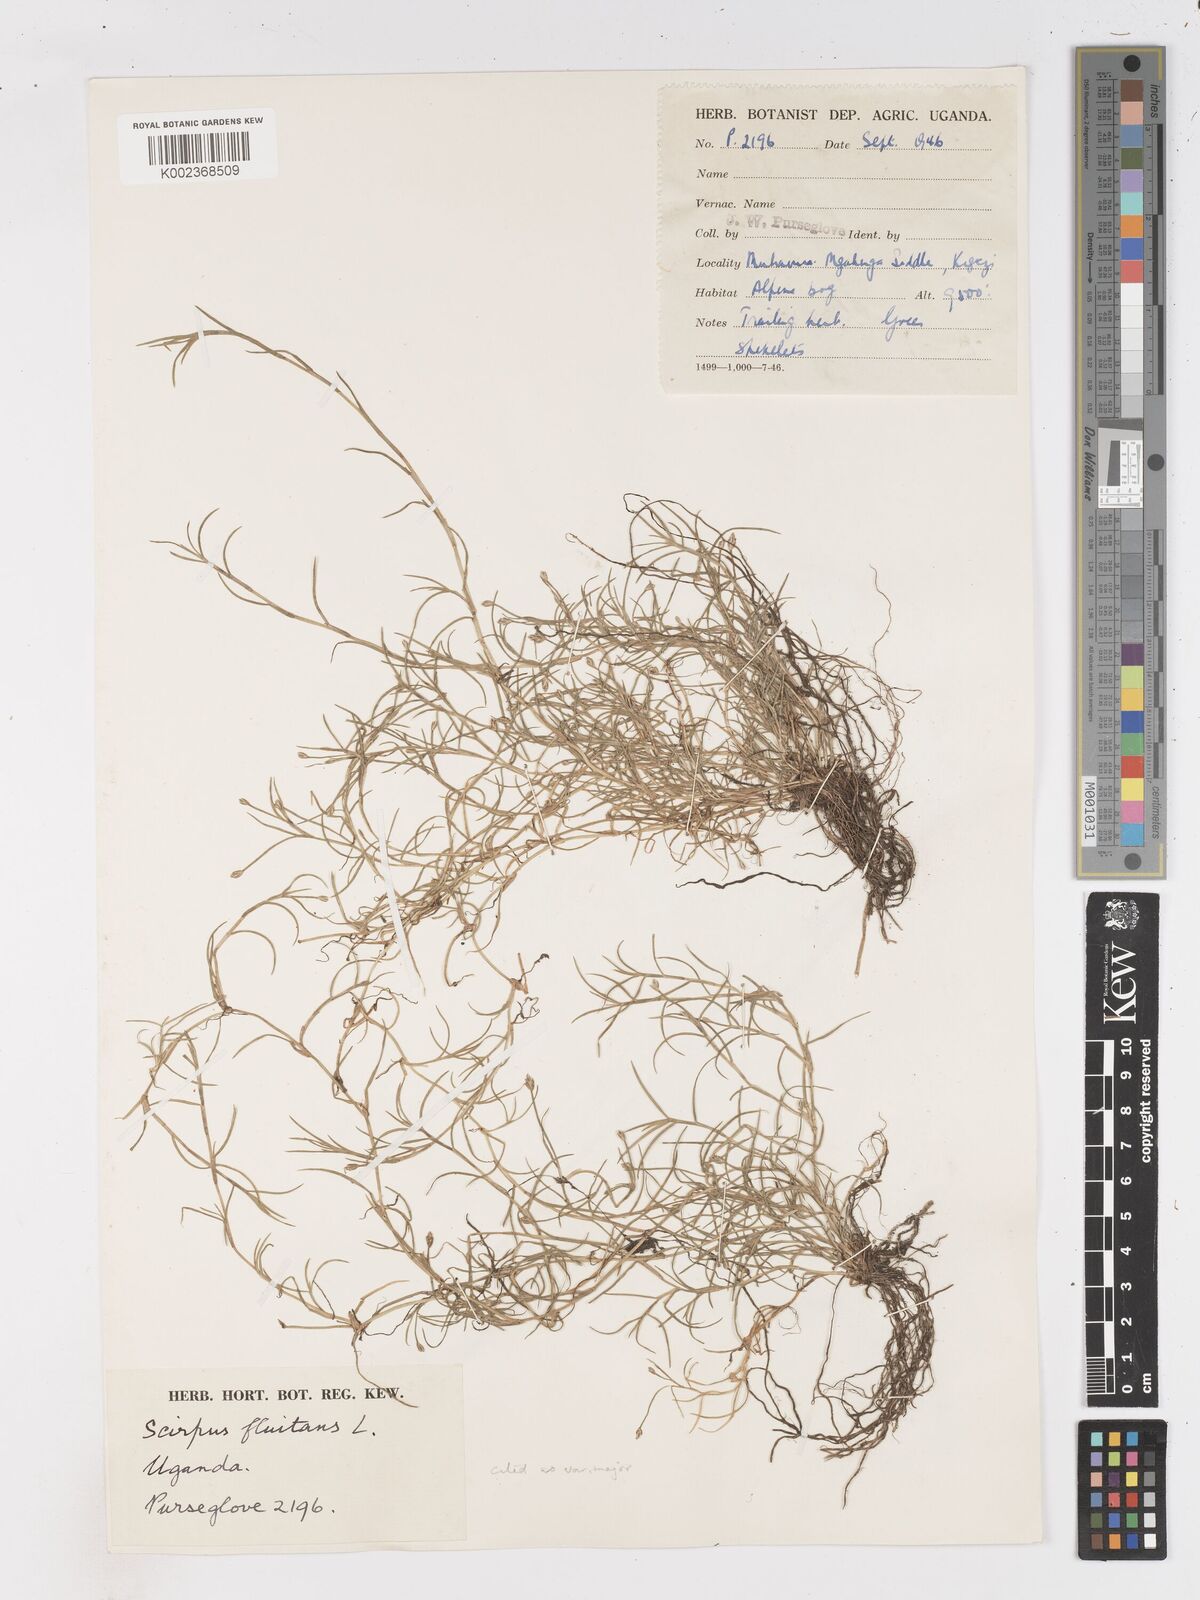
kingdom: Plantae
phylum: Tracheophyta
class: Liliopsida
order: Poales
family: Cyperaceae
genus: Isolepis
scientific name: Isolepis fluitans
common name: Floating club-rush
